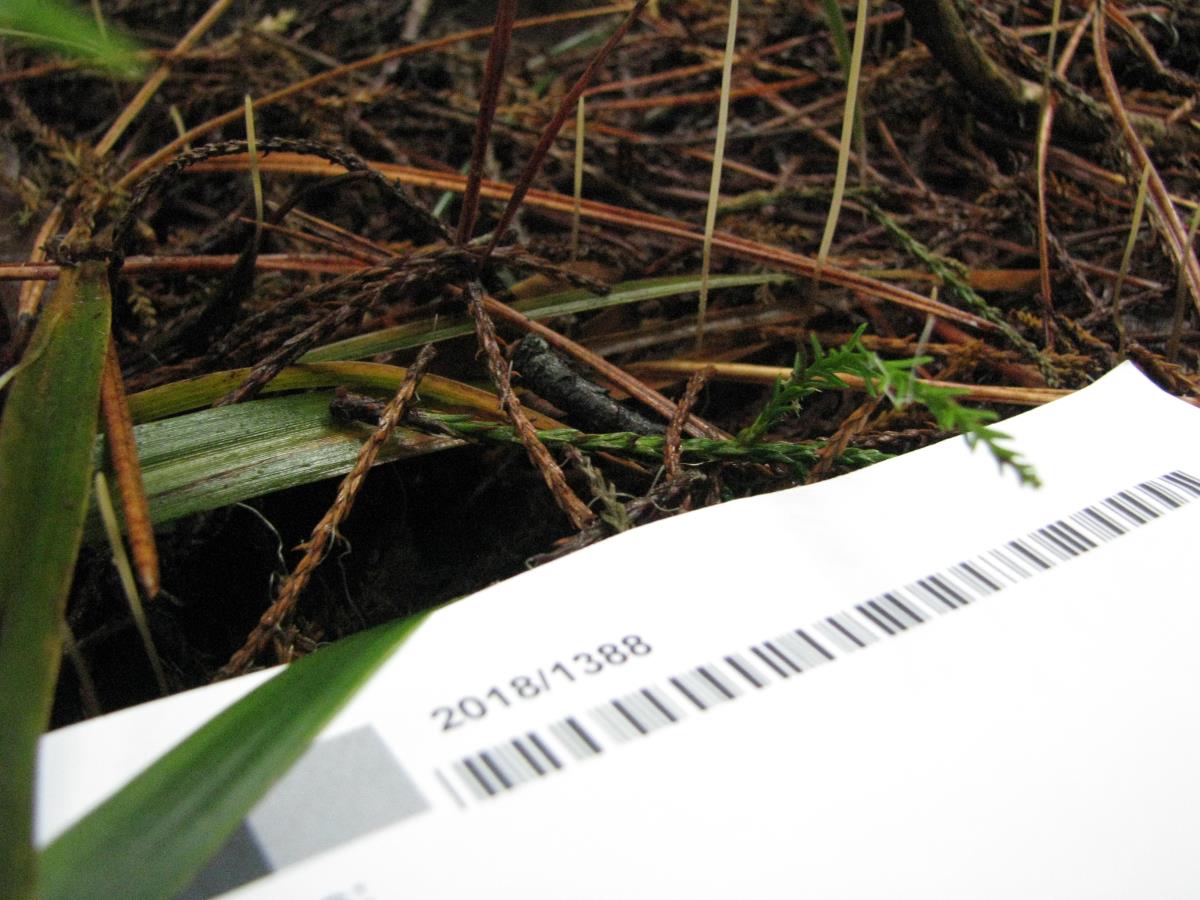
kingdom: Fungi
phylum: Basidiomycota
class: Agaricomycetes
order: Agaricales
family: Typhulaceae
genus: Macrotyphula
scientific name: Macrotyphula defibulata
